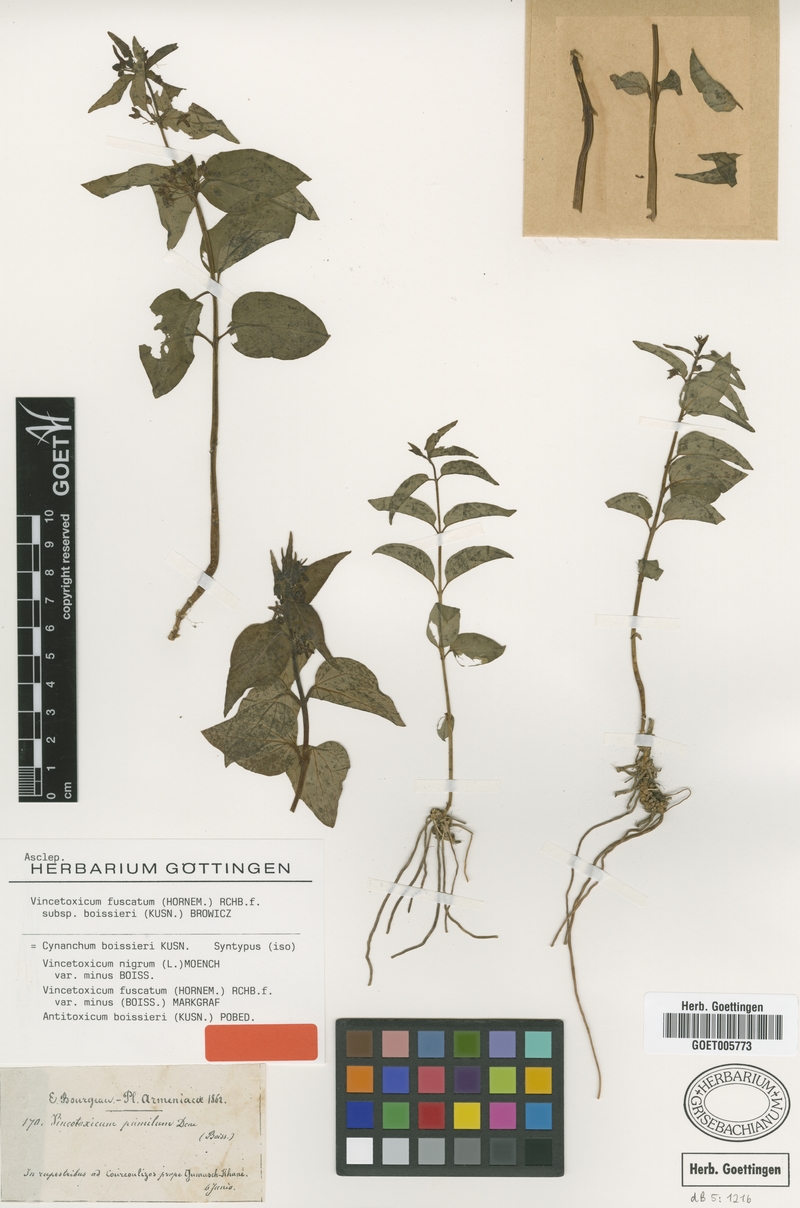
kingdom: Plantae
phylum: Tracheophyta
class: Magnoliopsida
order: Gentianales
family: Apocynaceae
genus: Vincetoxicum
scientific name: Vincetoxicum fuscatum
